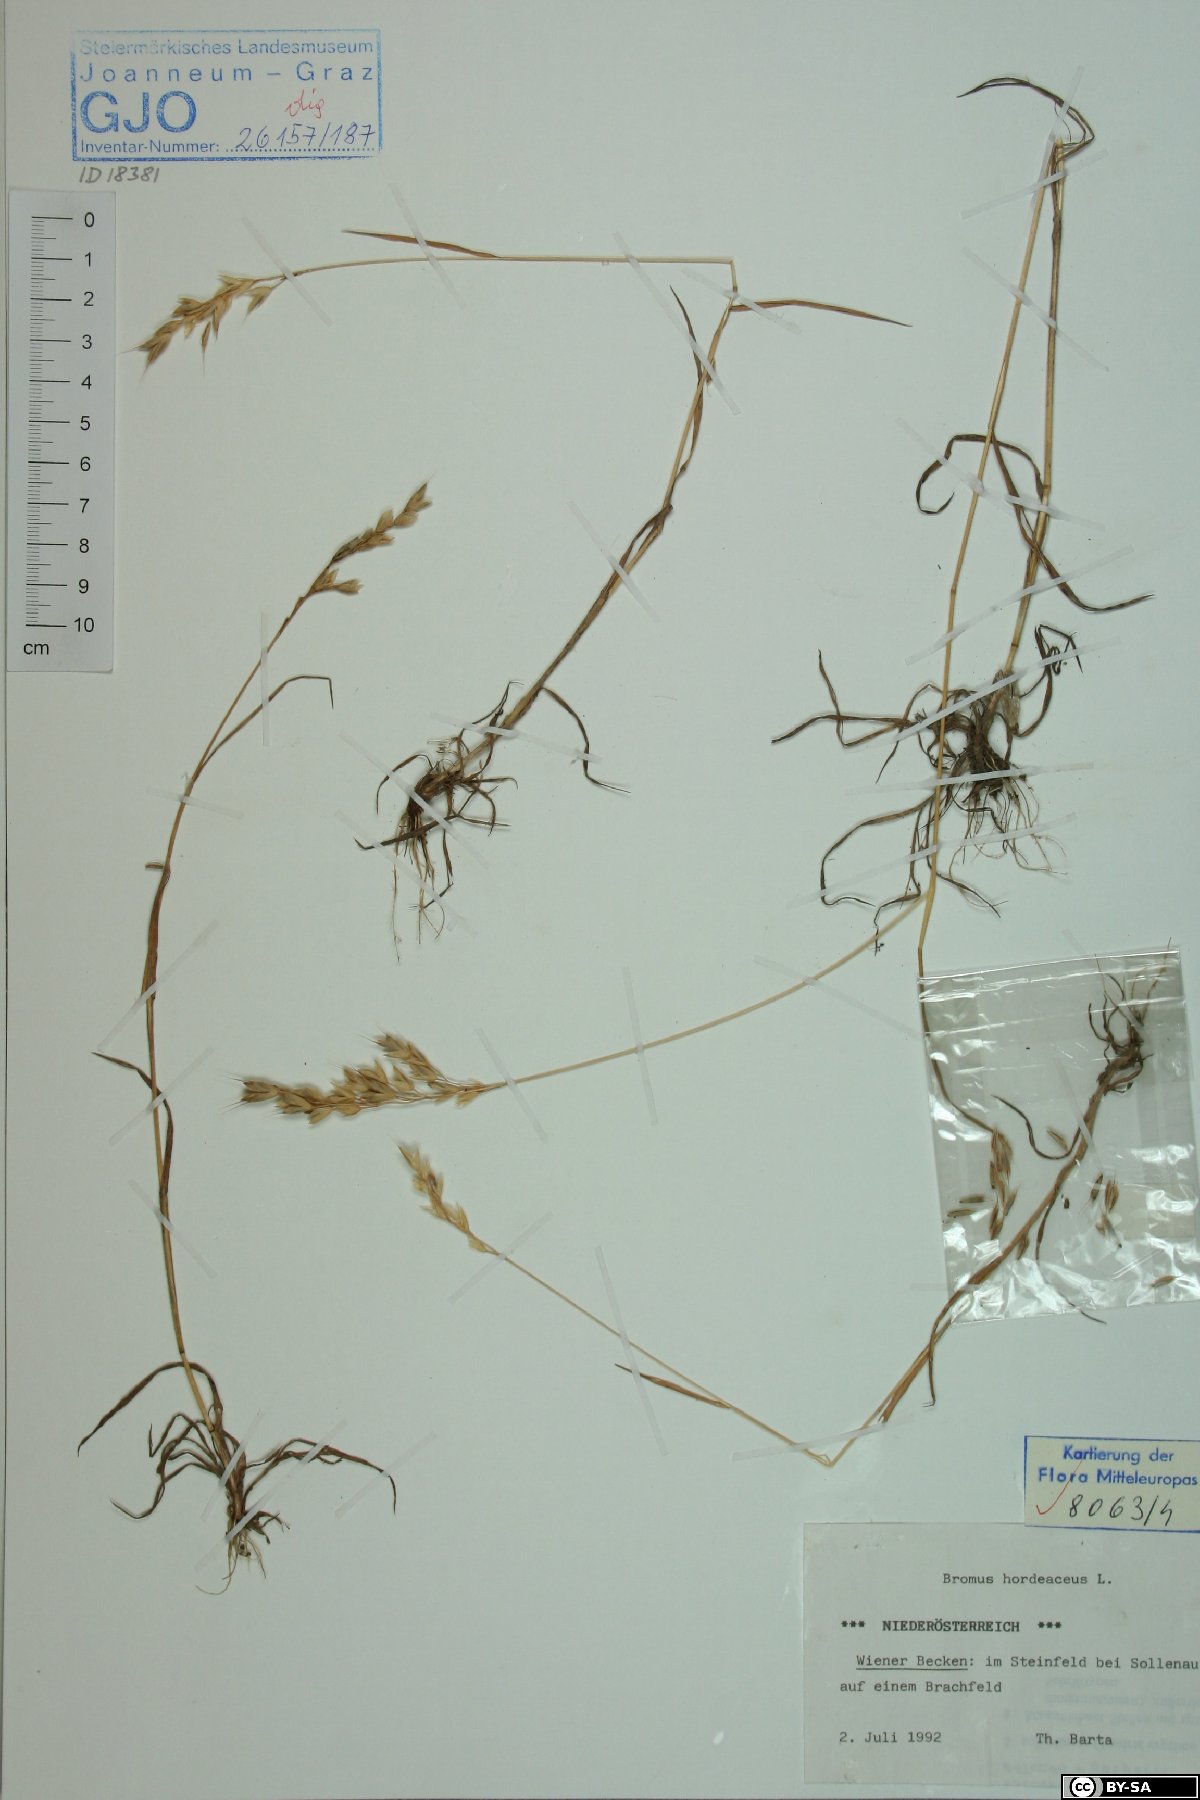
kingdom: Plantae
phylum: Tracheophyta
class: Liliopsida
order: Poales
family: Poaceae
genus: Bromus
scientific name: Bromus hordeaceus
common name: Soft brome
